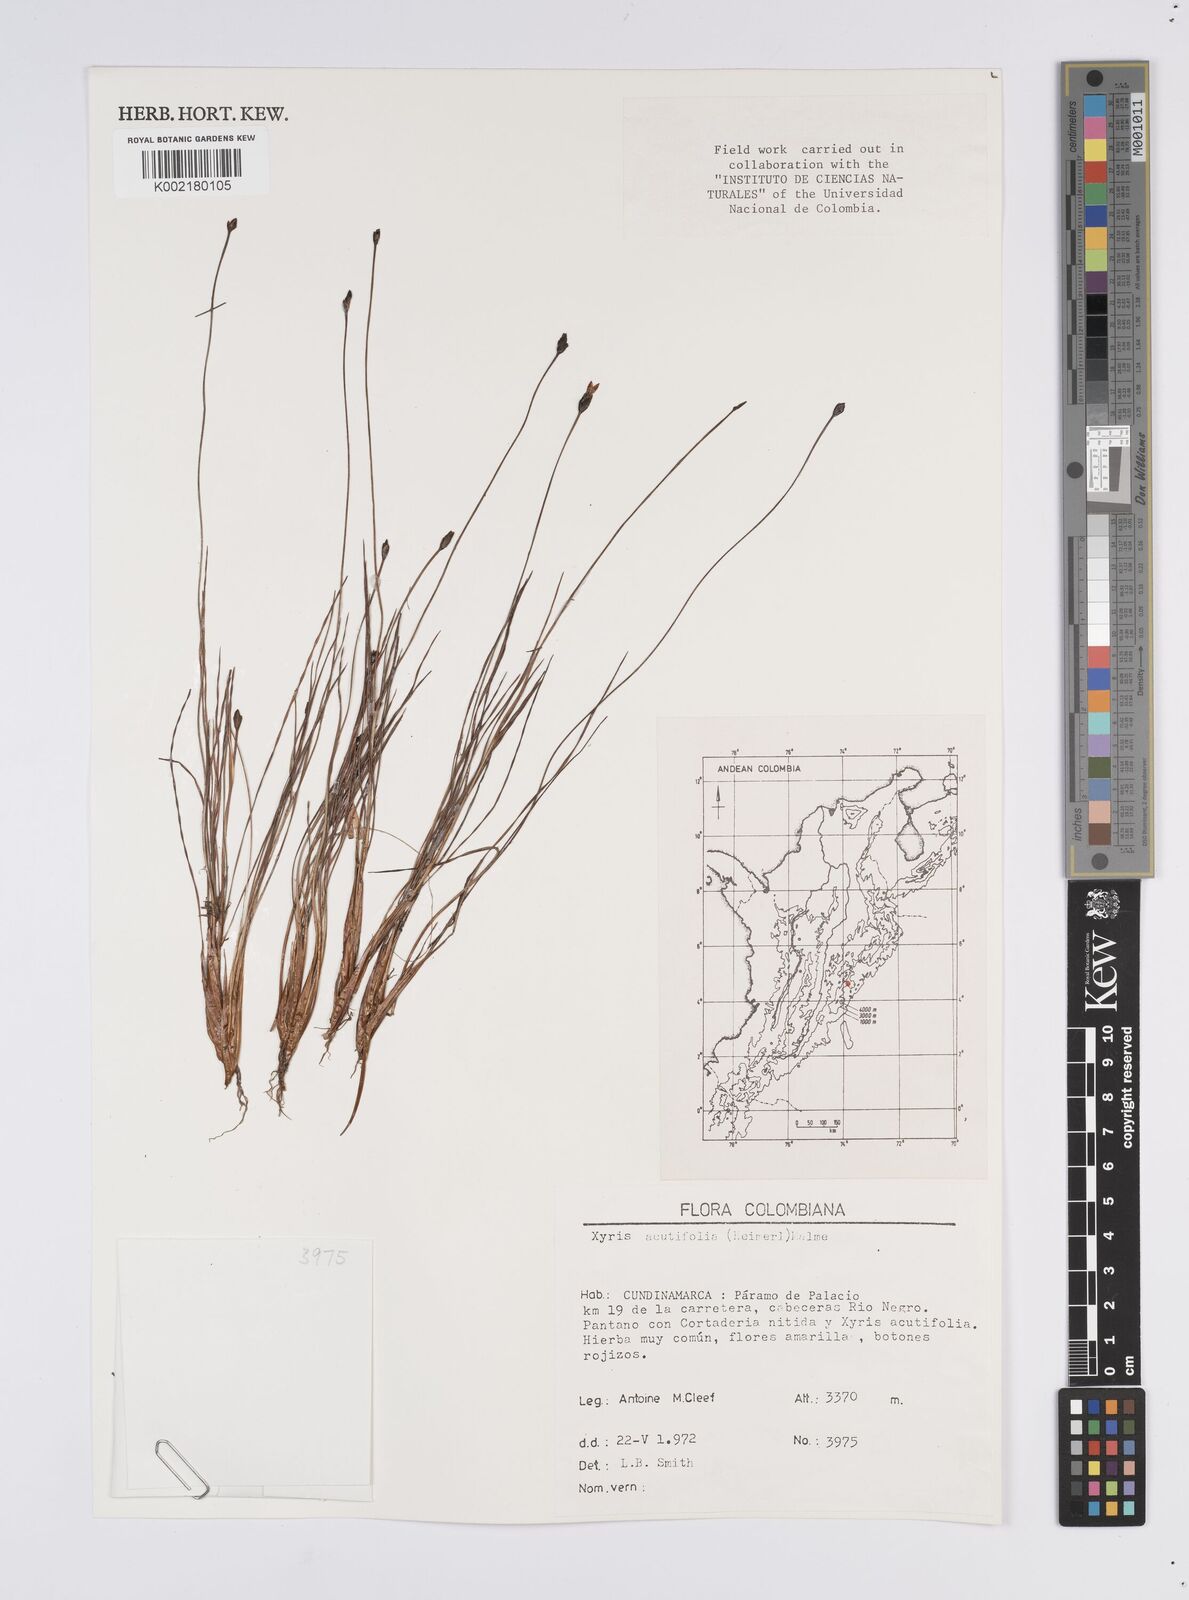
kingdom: Plantae
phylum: Tracheophyta
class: Liliopsida
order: Poales
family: Xyridaceae
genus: Xyris
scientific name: Xyris subulata
